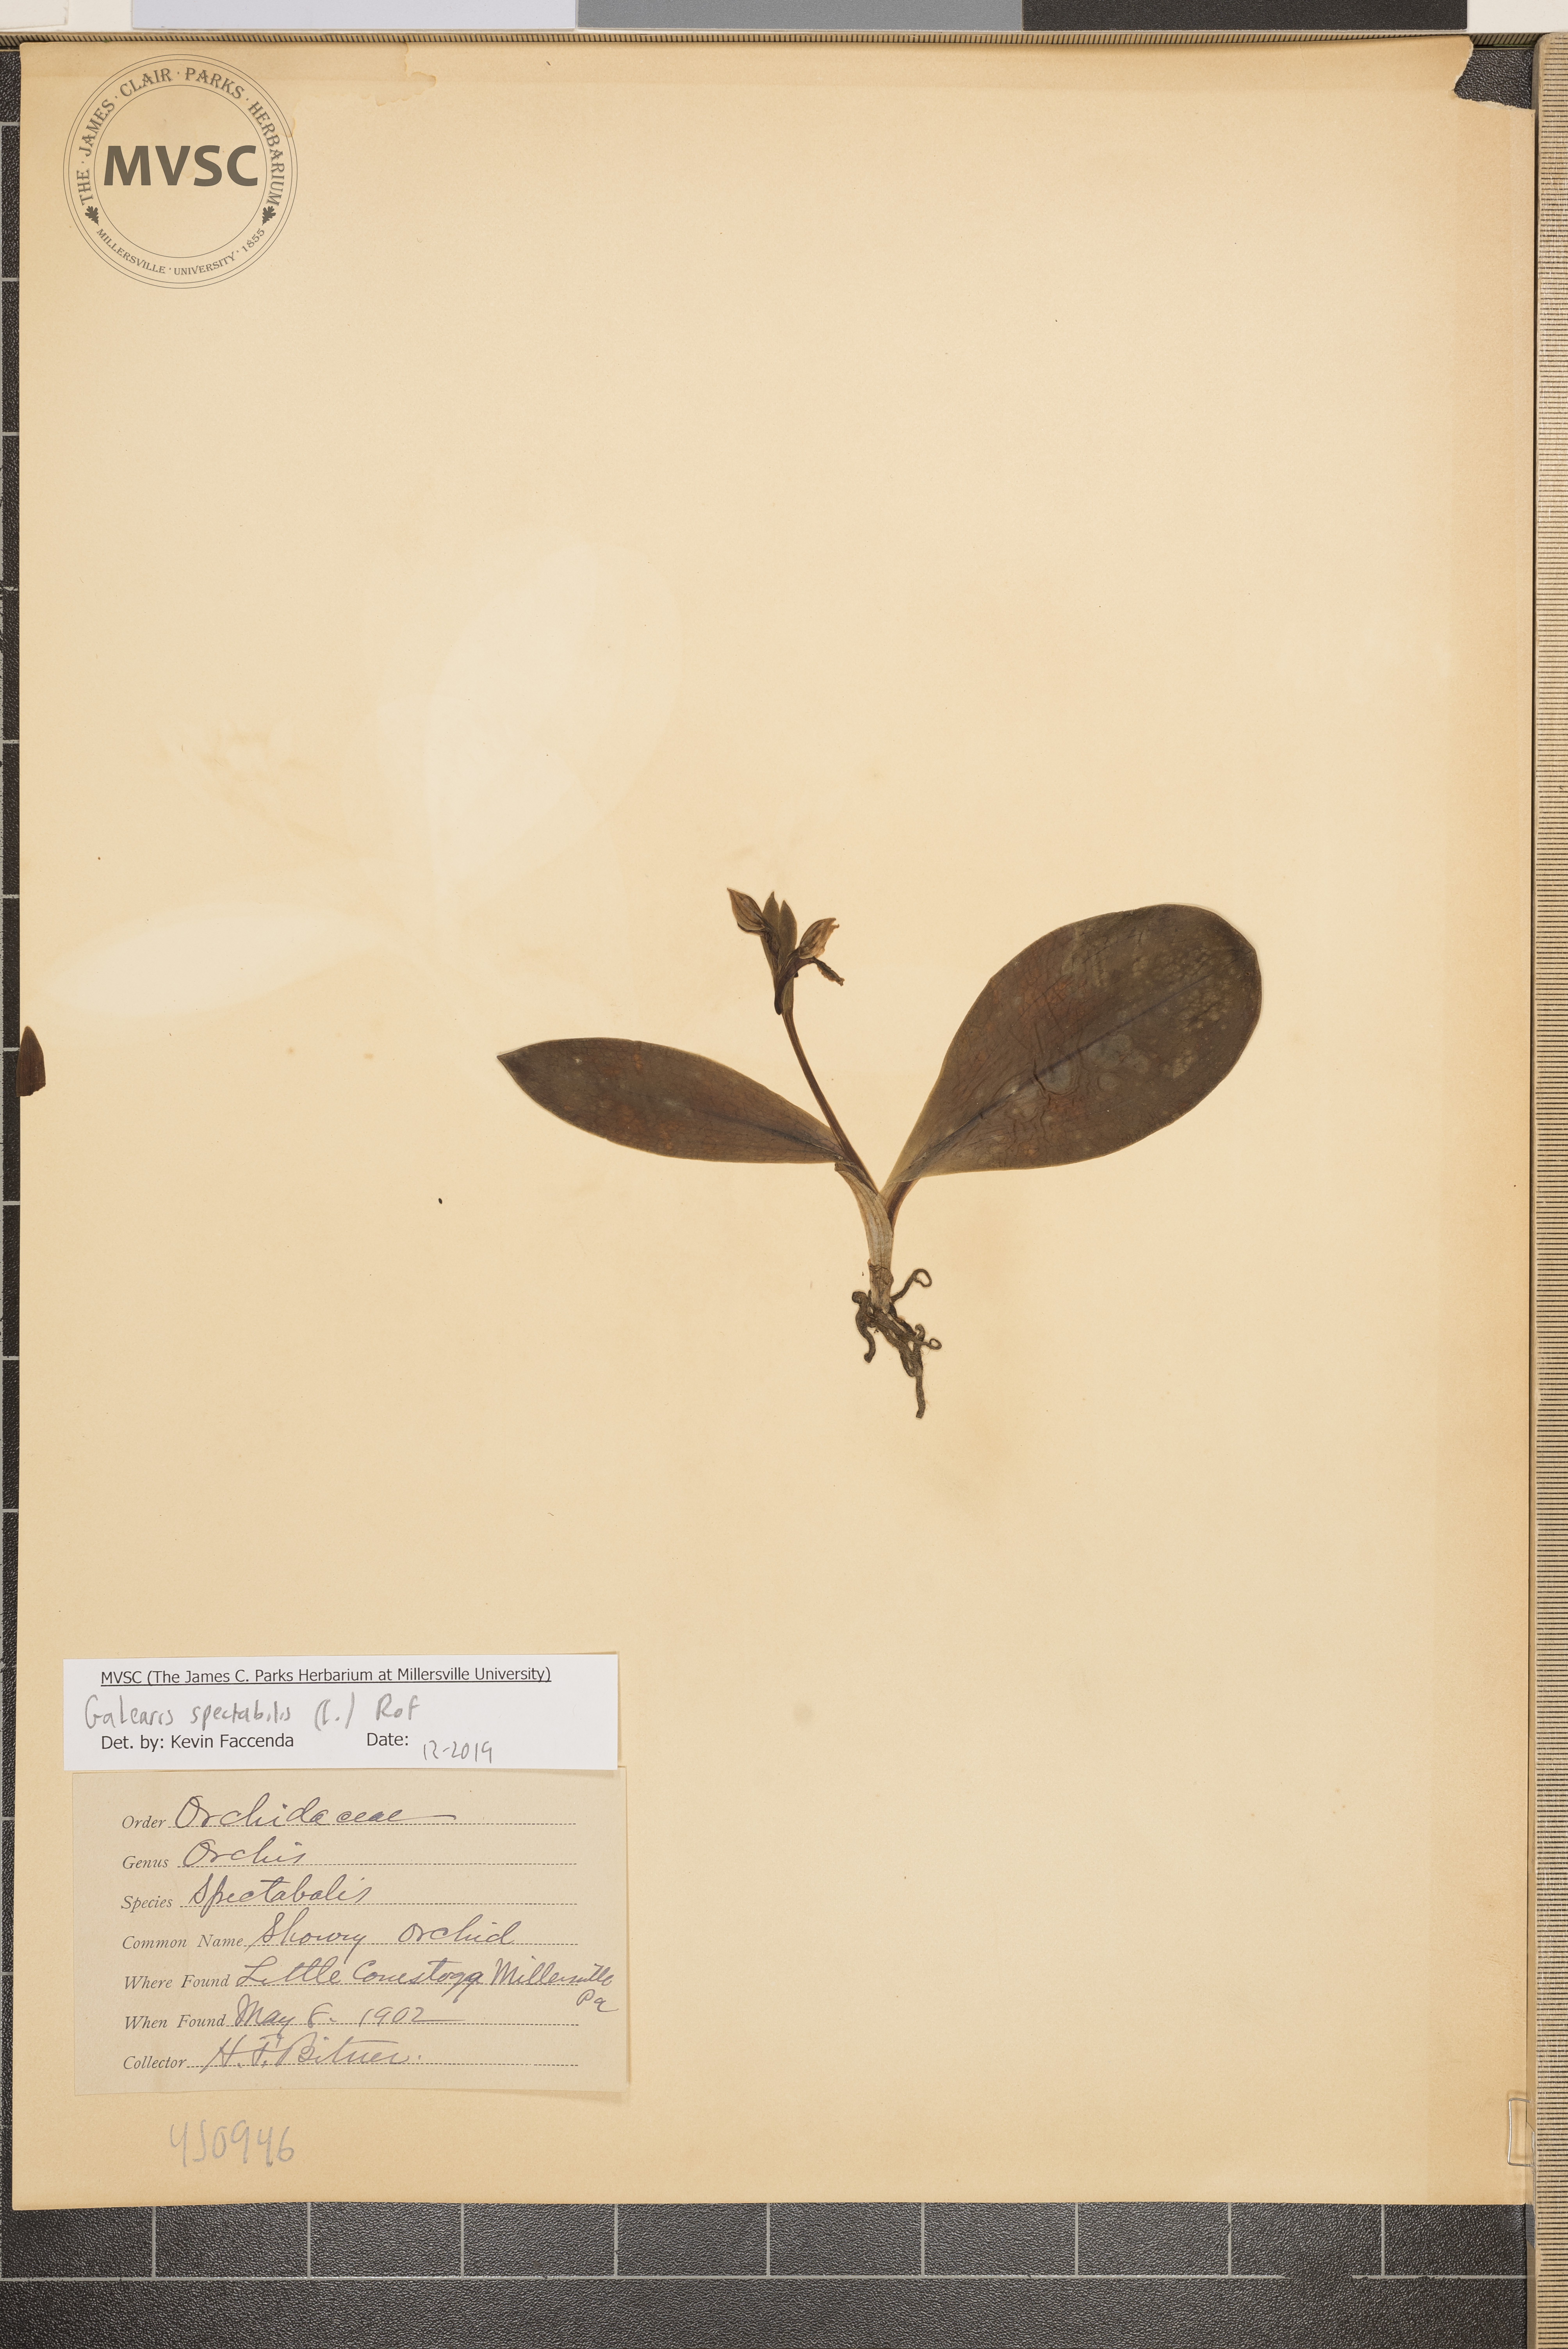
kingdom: Plantae
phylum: Tracheophyta
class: Liliopsida
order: Asparagales
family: Orchidaceae
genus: Galearis
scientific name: Galearis spectabilis
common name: Showy Orchis
